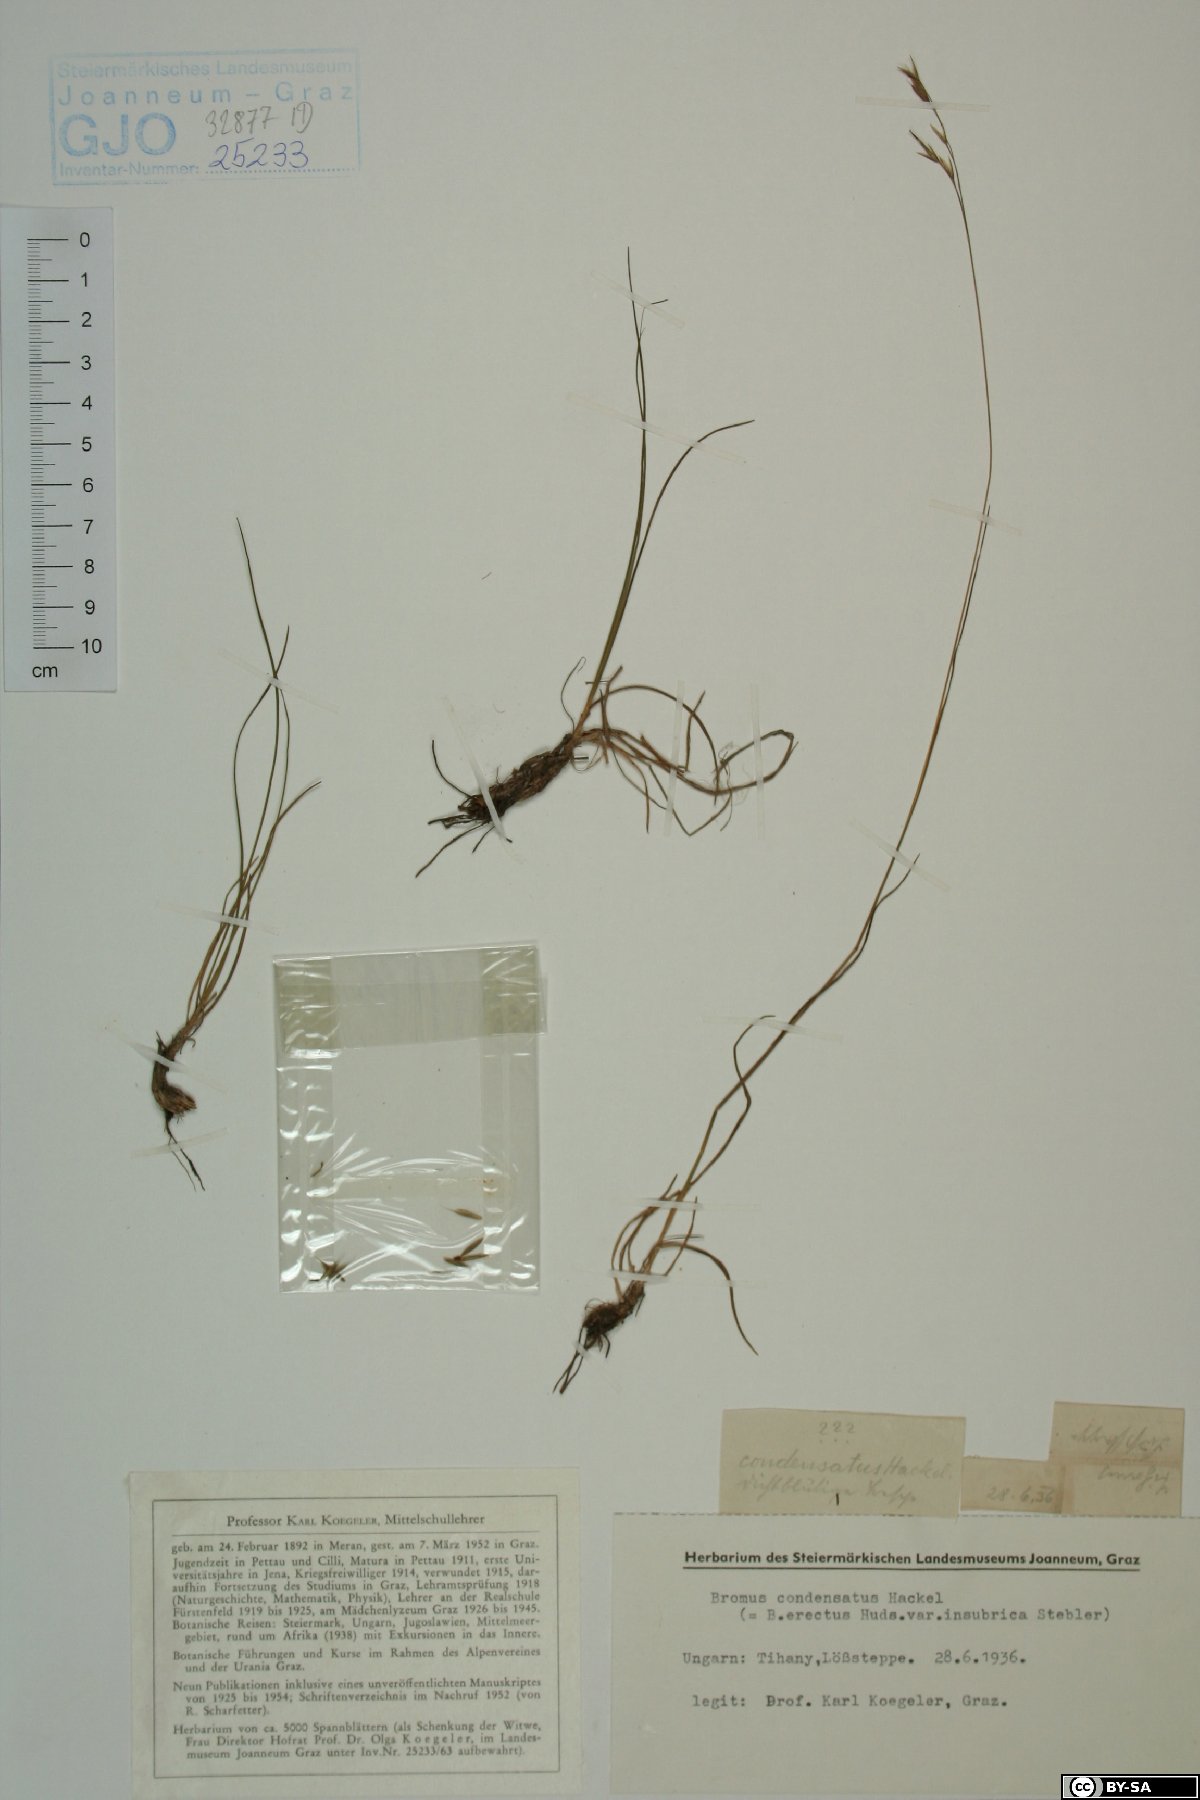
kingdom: Plantae
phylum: Tracheophyta
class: Liliopsida
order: Poales
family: Poaceae
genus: Bromus
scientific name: Bromus condensatus
